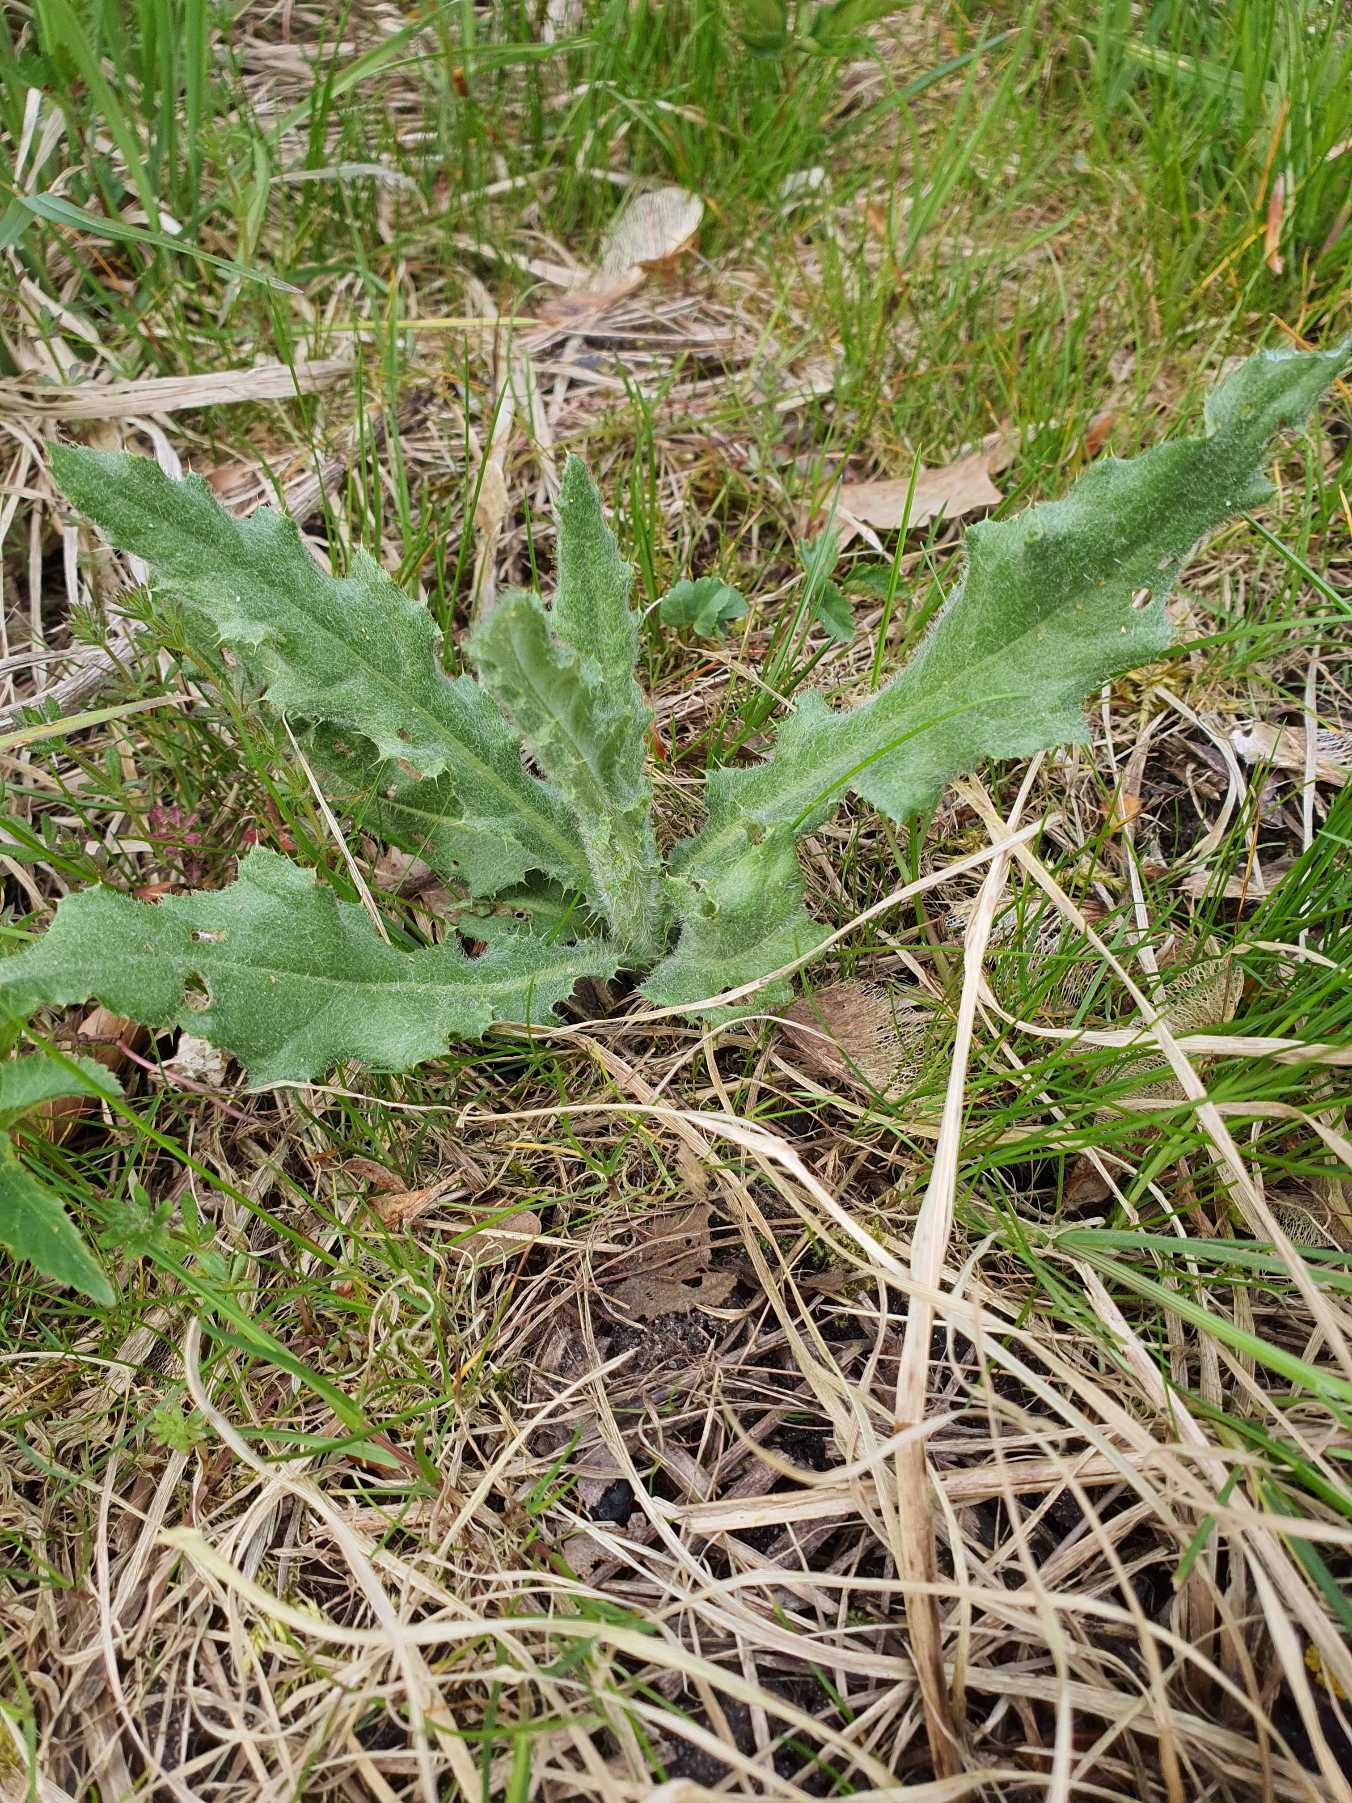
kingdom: Plantae
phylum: Tracheophyta
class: Magnoliopsida
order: Asterales
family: Asteraceae
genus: Cirsium
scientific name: Cirsium arvense
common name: Ager-tidsel
